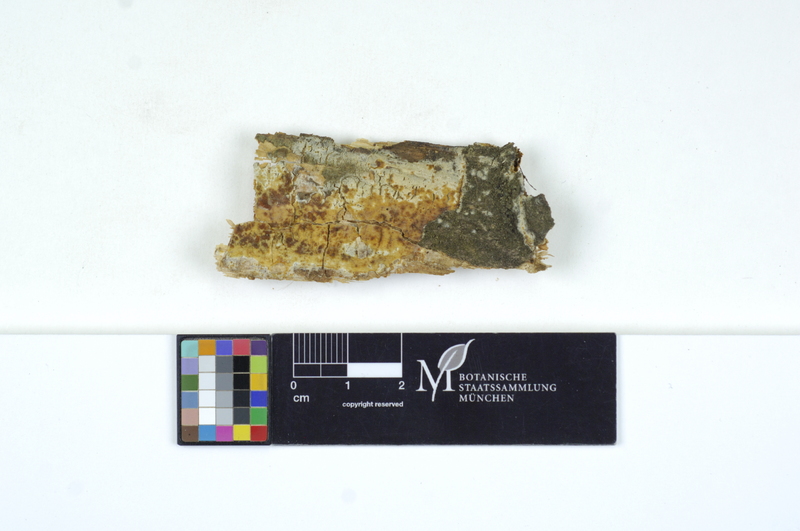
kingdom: Fungi
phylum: Basidiomycota
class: Microbotryomycetes
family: Colacogloeaceae
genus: Colacogloea
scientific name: Colacogloea peniophorae
